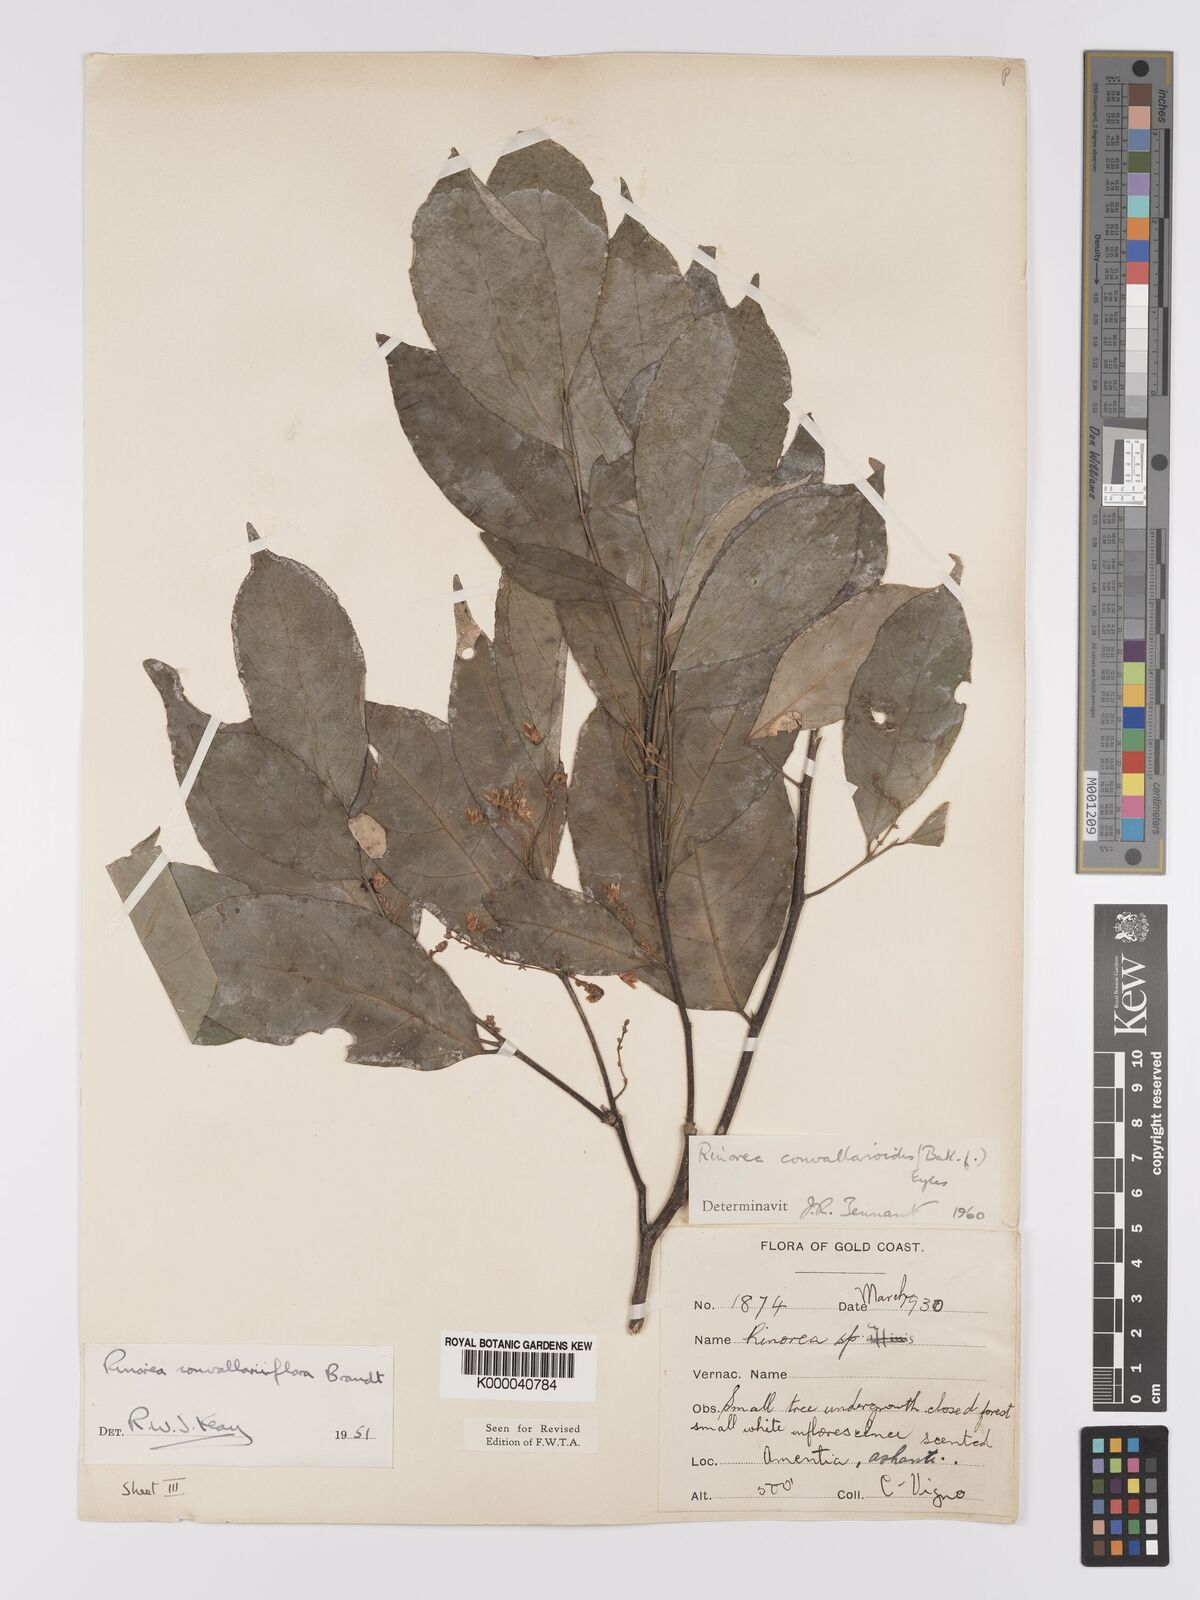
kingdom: Plantae
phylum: Tracheophyta
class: Magnoliopsida
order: Malpighiales
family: Violaceae
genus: Rinorea
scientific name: Rinorea convallarioides
